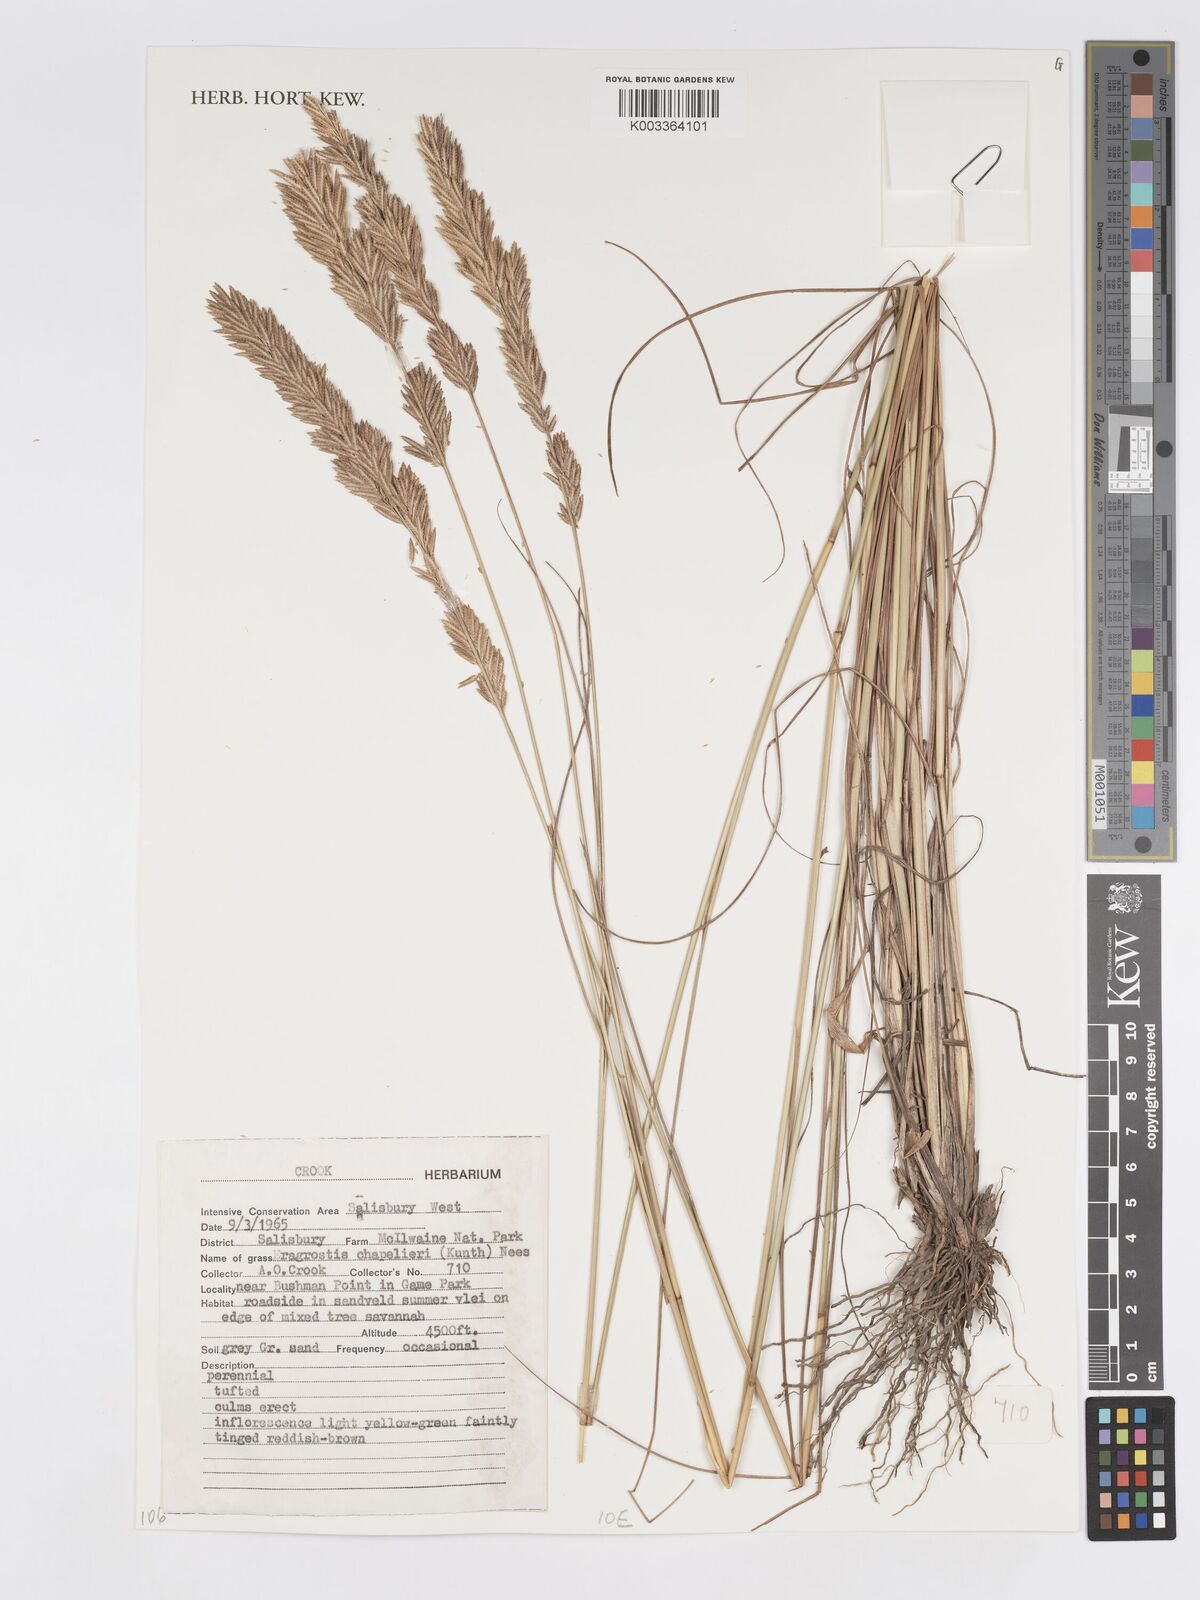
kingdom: Plantae
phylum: Tracheophyta
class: Liliopsida
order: Poales
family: Poaceae
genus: Eragrostis
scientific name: Eragrostis chapelieri
